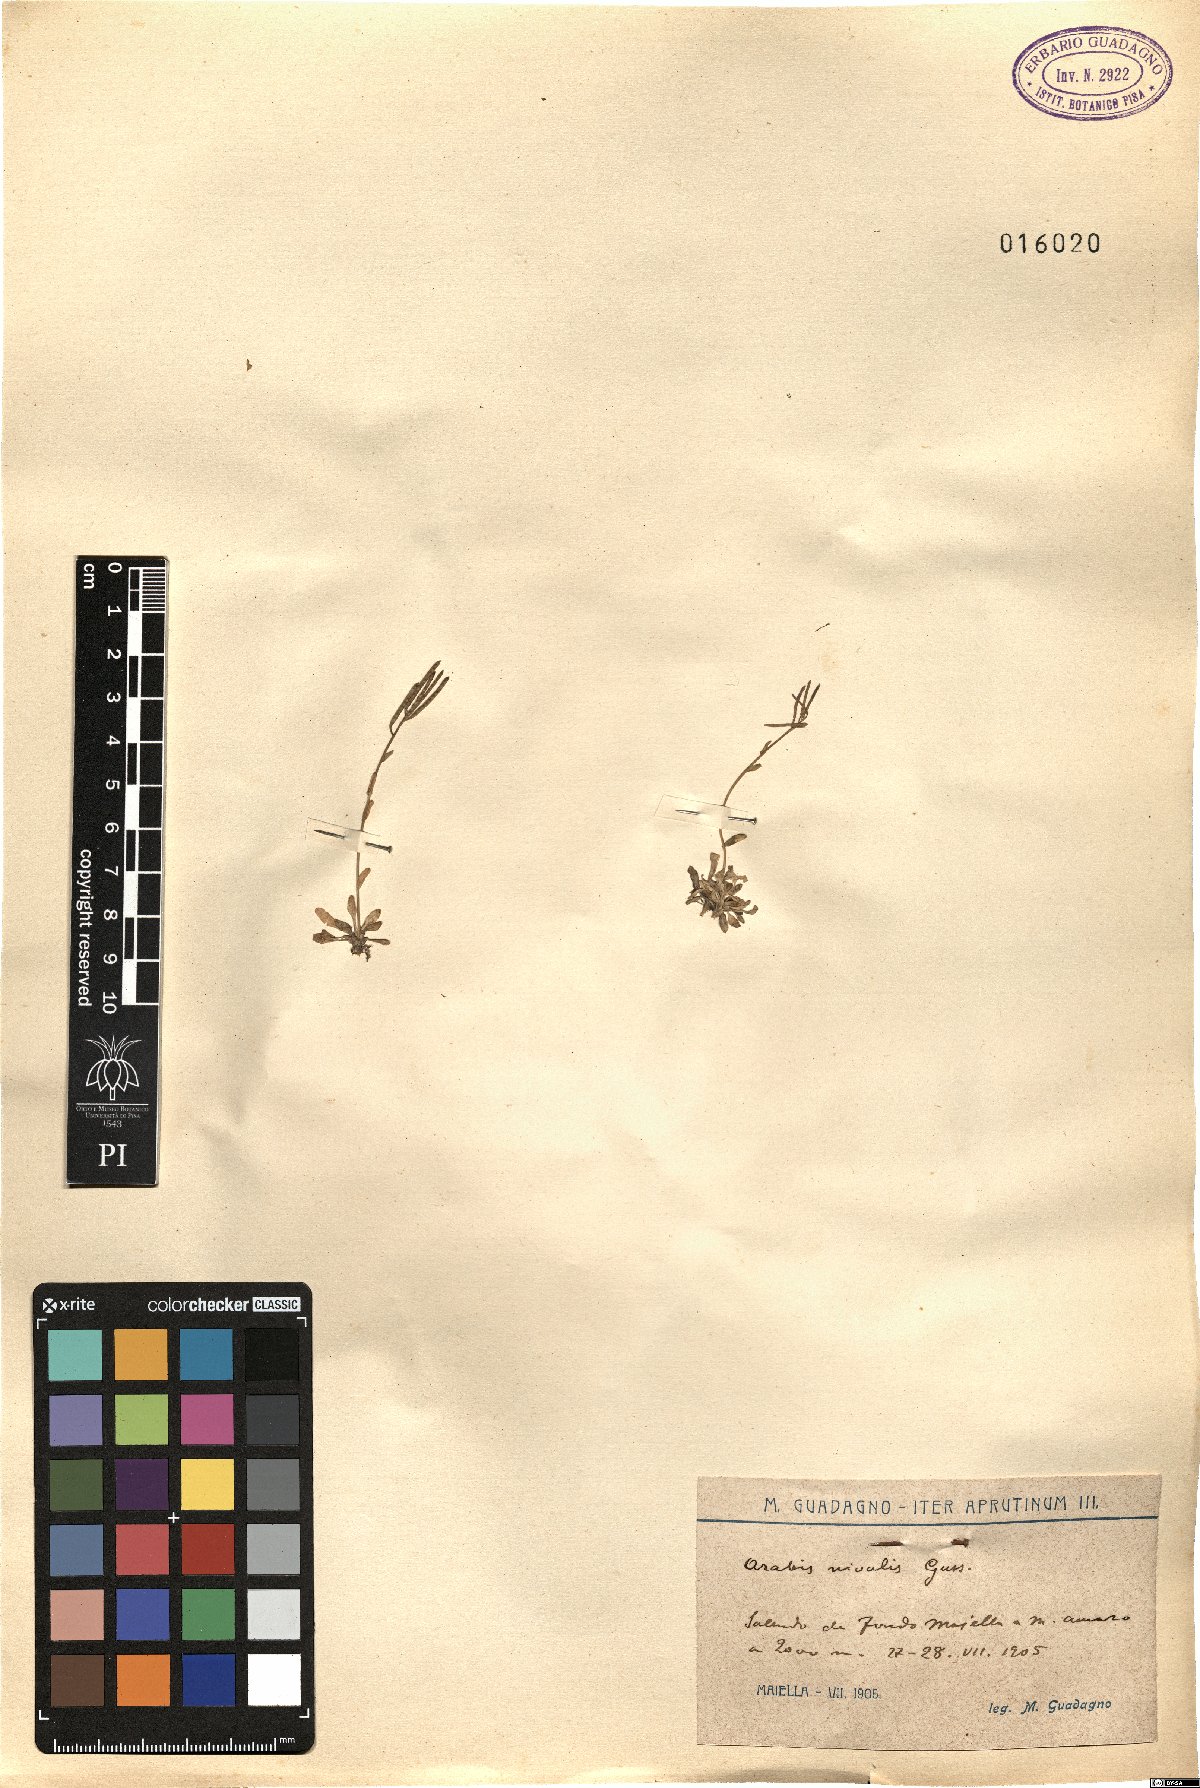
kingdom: Plantae
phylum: Tracheophyta
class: Magnoliopsida
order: Brassicales
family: Brassicaceae
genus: Arabis
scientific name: Arabis surculosa
